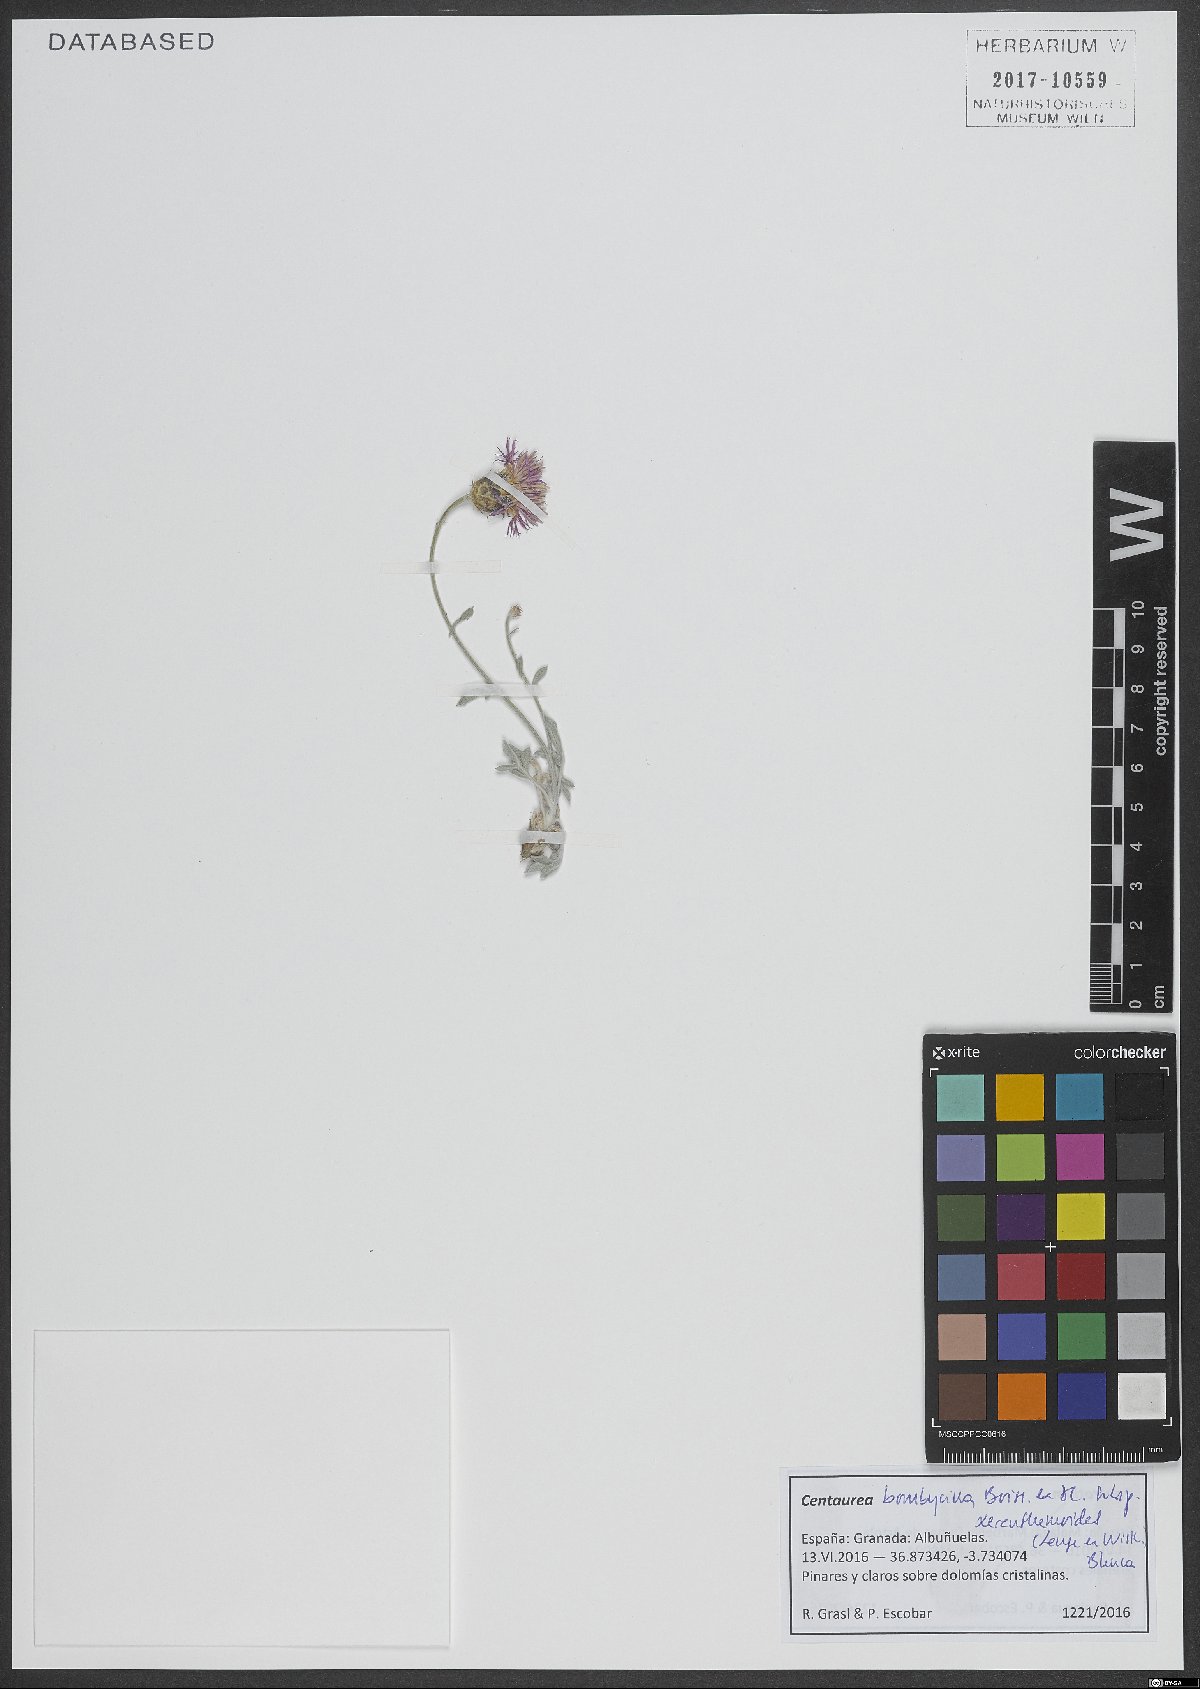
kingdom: Plantae
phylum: Tracheophyta
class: Magnoliopsida
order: Asterales
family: Asteraceae
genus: Centaurea
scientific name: Centaurea bombycina
